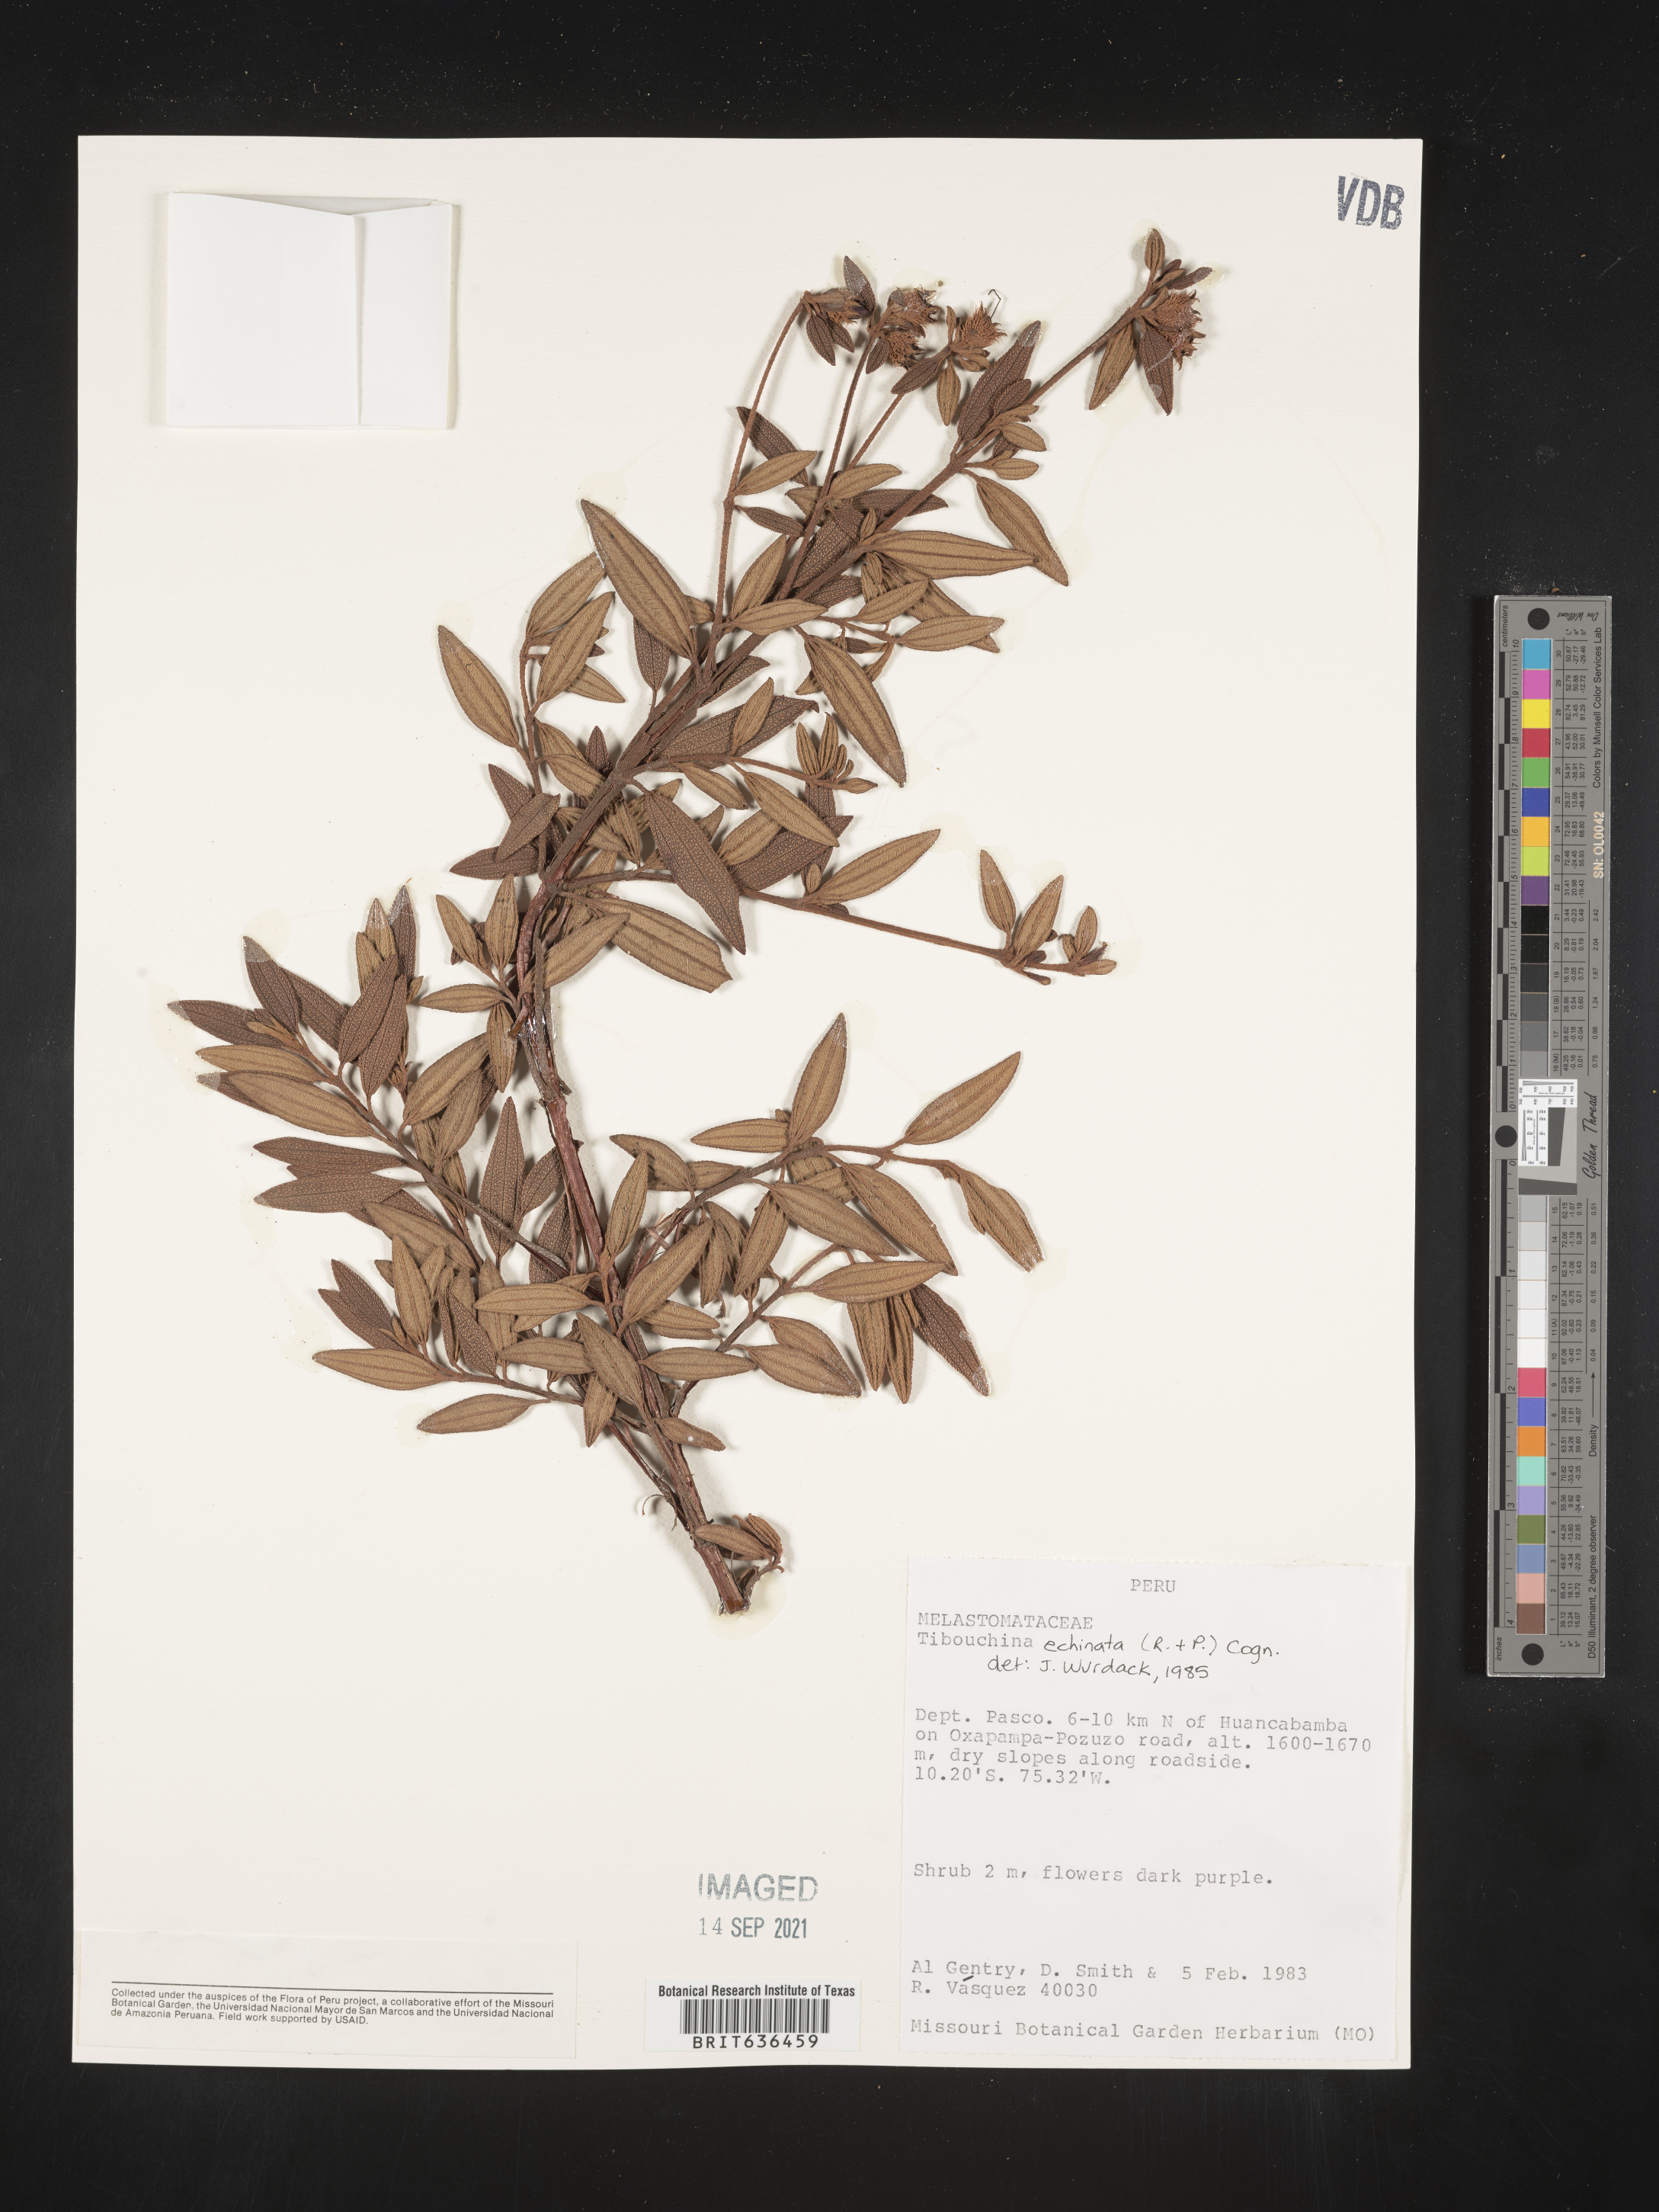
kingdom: Plantae
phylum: Tracheophyta
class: Magnoliopsida
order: Myrtales
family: Melastomataceae
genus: Tibouchina
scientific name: Tibouchina
